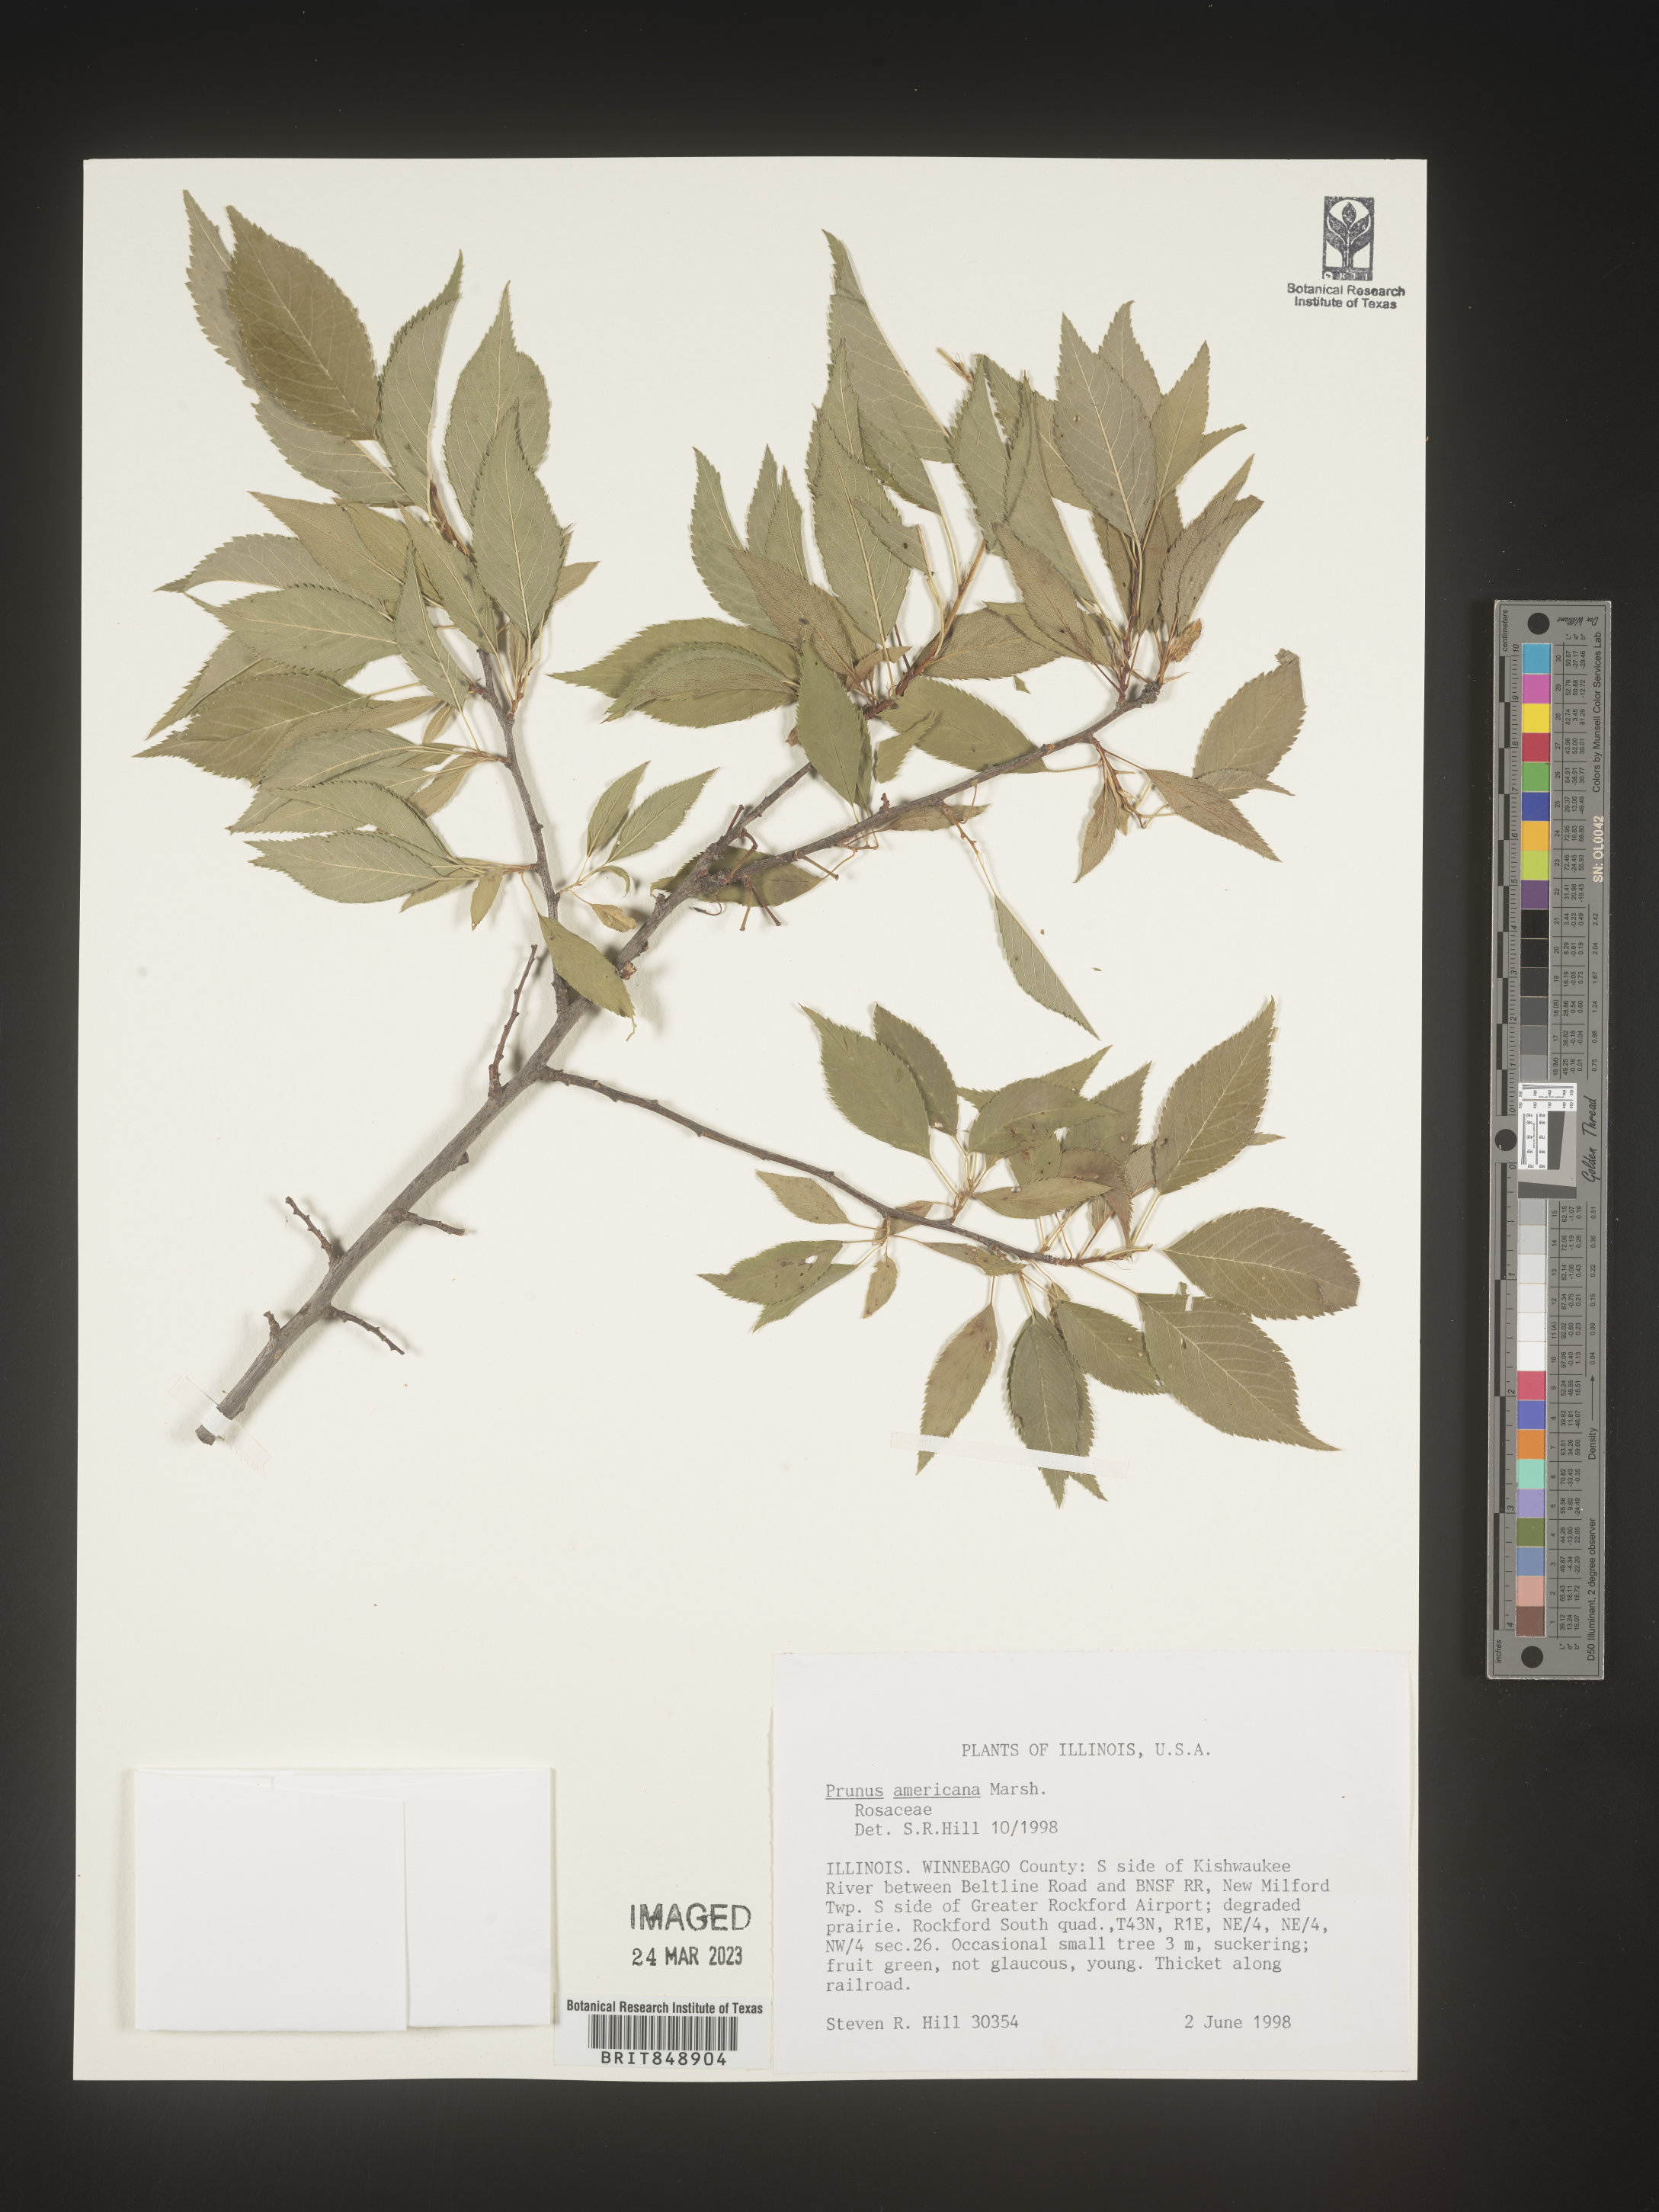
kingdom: Plantae
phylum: Tracheophyta
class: Magnoliopsida
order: Rosales
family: Rosaceae
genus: Prunus
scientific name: Prunus americana
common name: American plum
